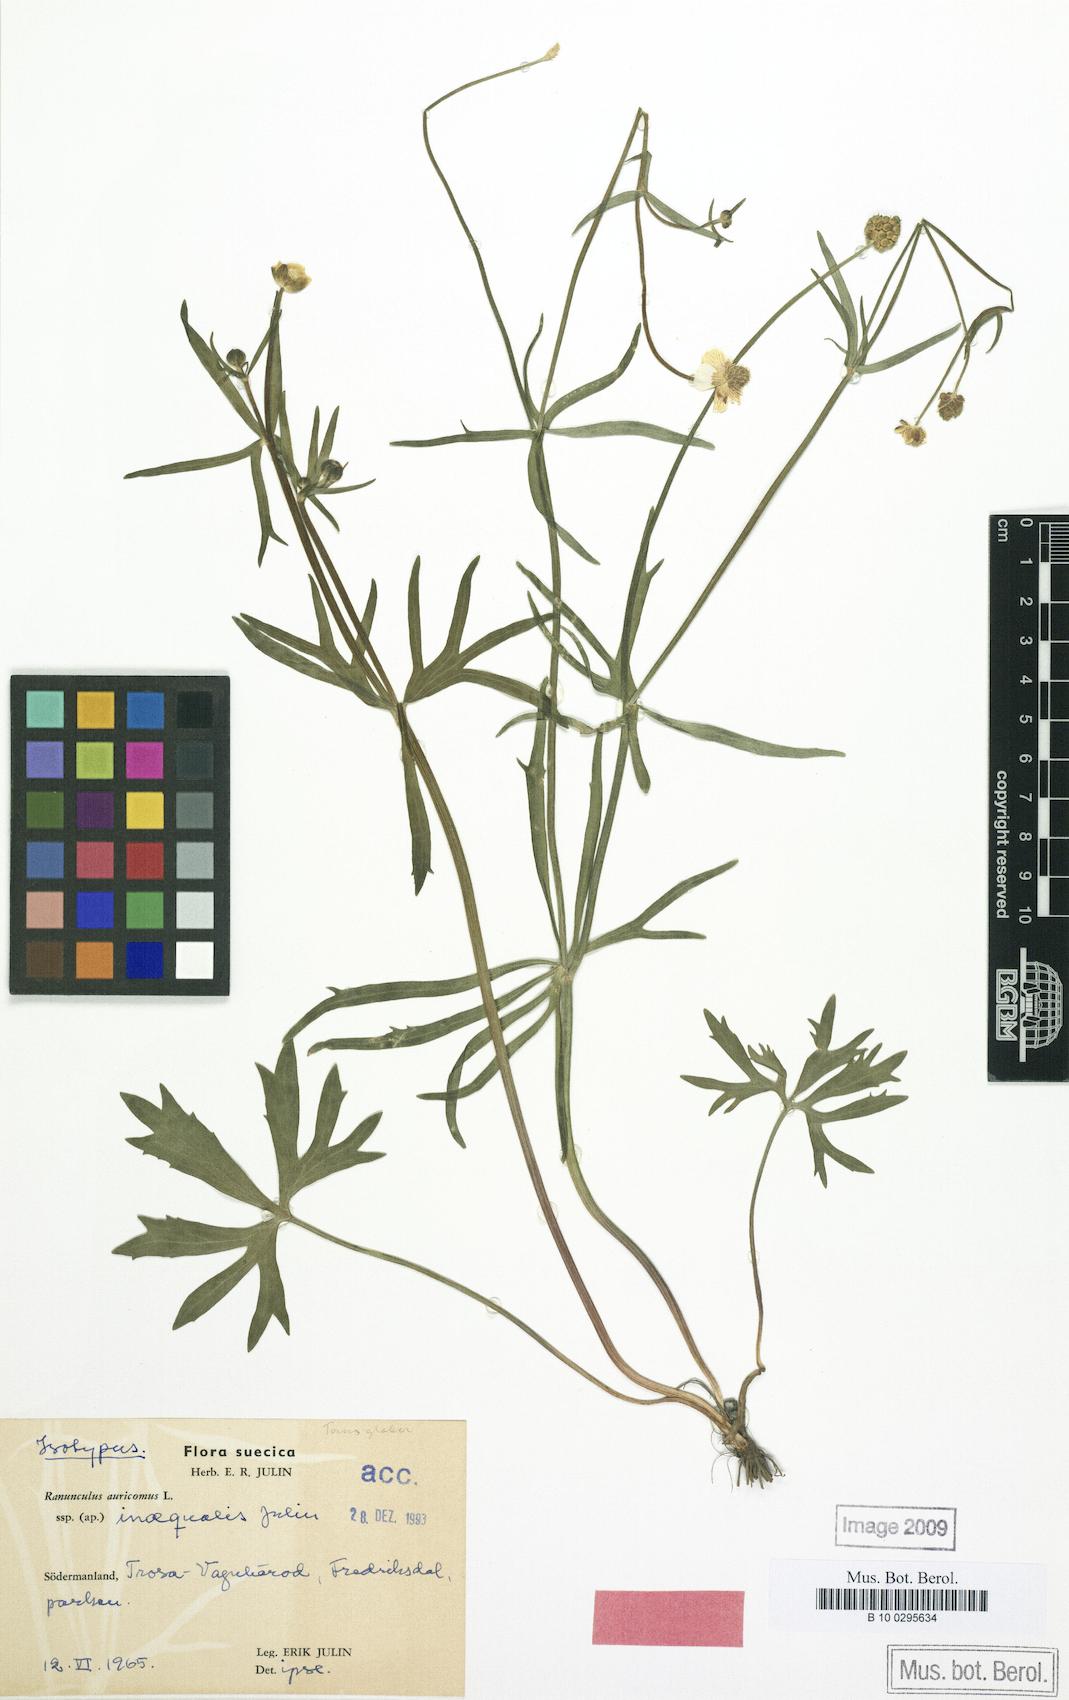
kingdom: Plantae
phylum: Tracheophyta
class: Magnoliopsida
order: Ranunculales
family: Ranunculaceae
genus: Ranunculus
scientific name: Ranunculus inaequalis
